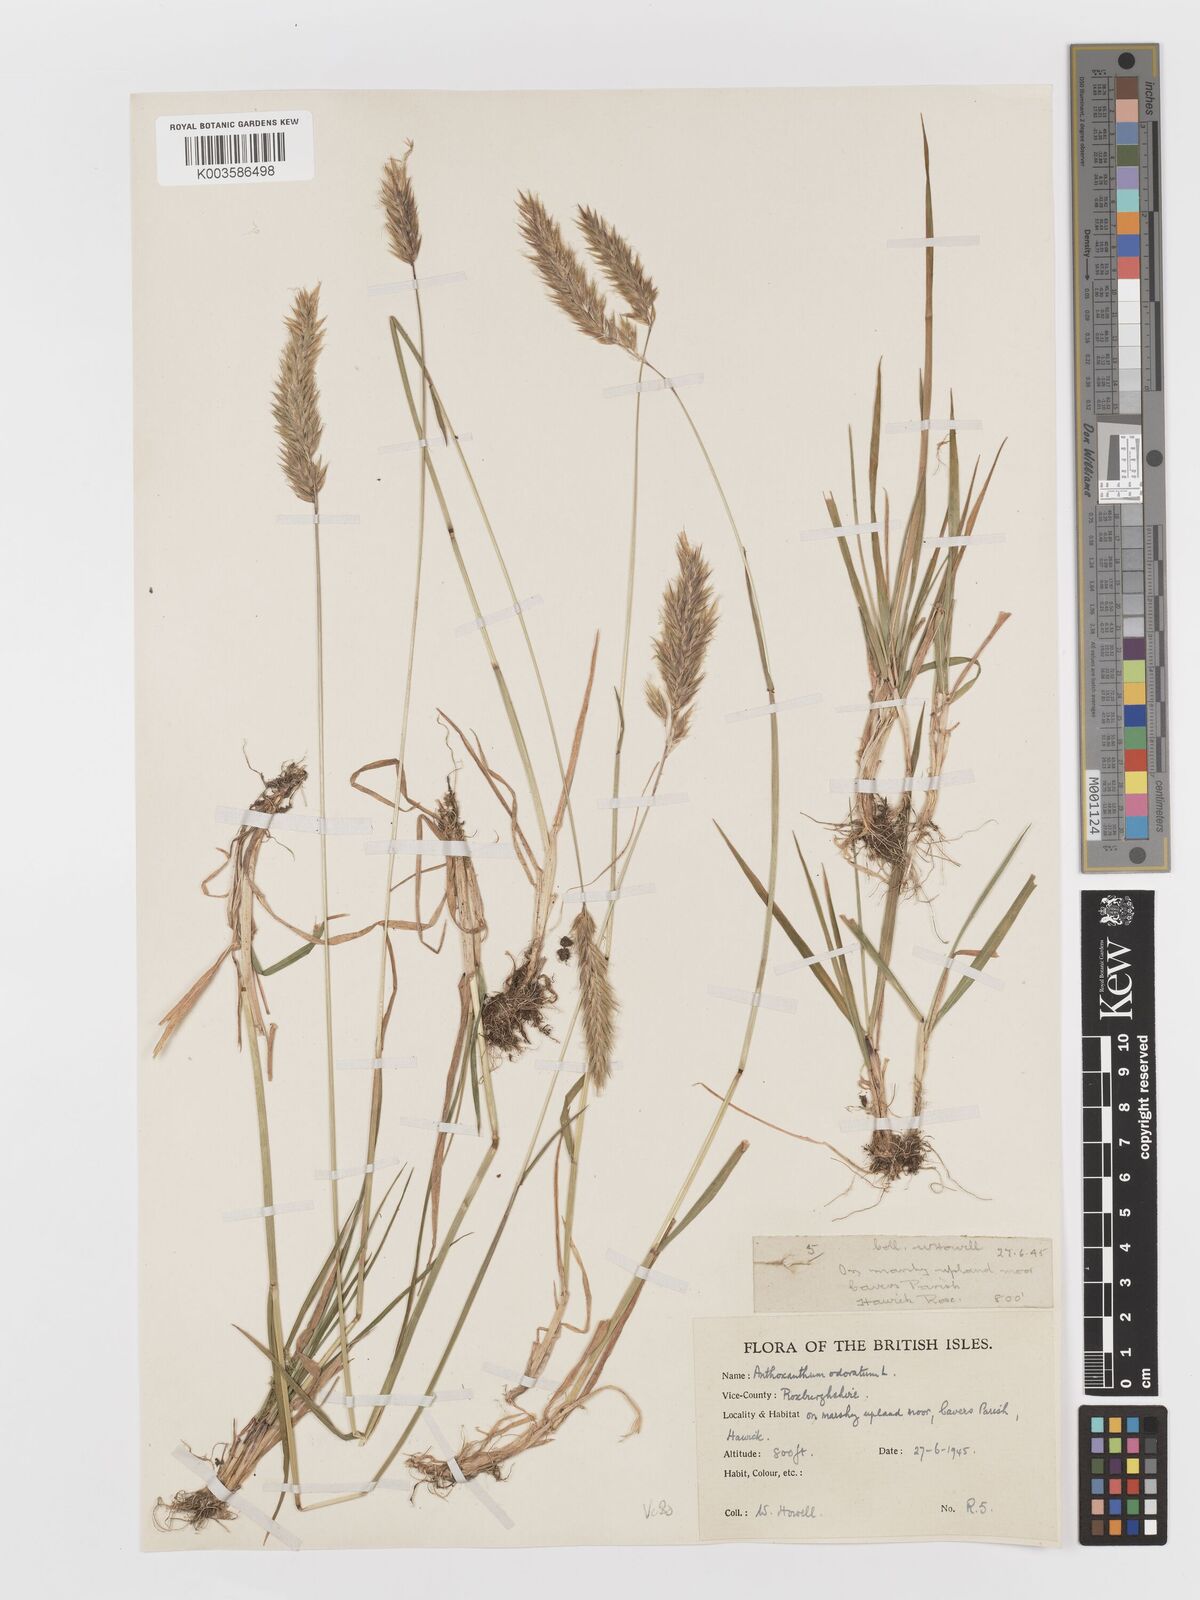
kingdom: Plantae
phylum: Tracheophyta
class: Liliopsida
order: Poales
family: Poaceae
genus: Anthoxanthum
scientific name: Anthoxanthum odoratum
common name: Sweet vernalgrass
